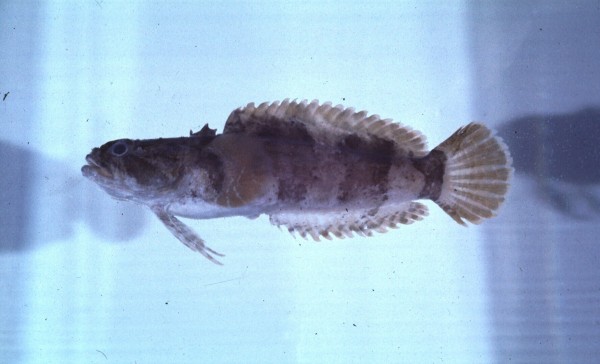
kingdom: Animalia
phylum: Chordata
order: Batrachoidiformes
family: Batrachoididae
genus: Chatrabus
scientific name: Chatrabus melanurus
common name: Humpback toadfish
